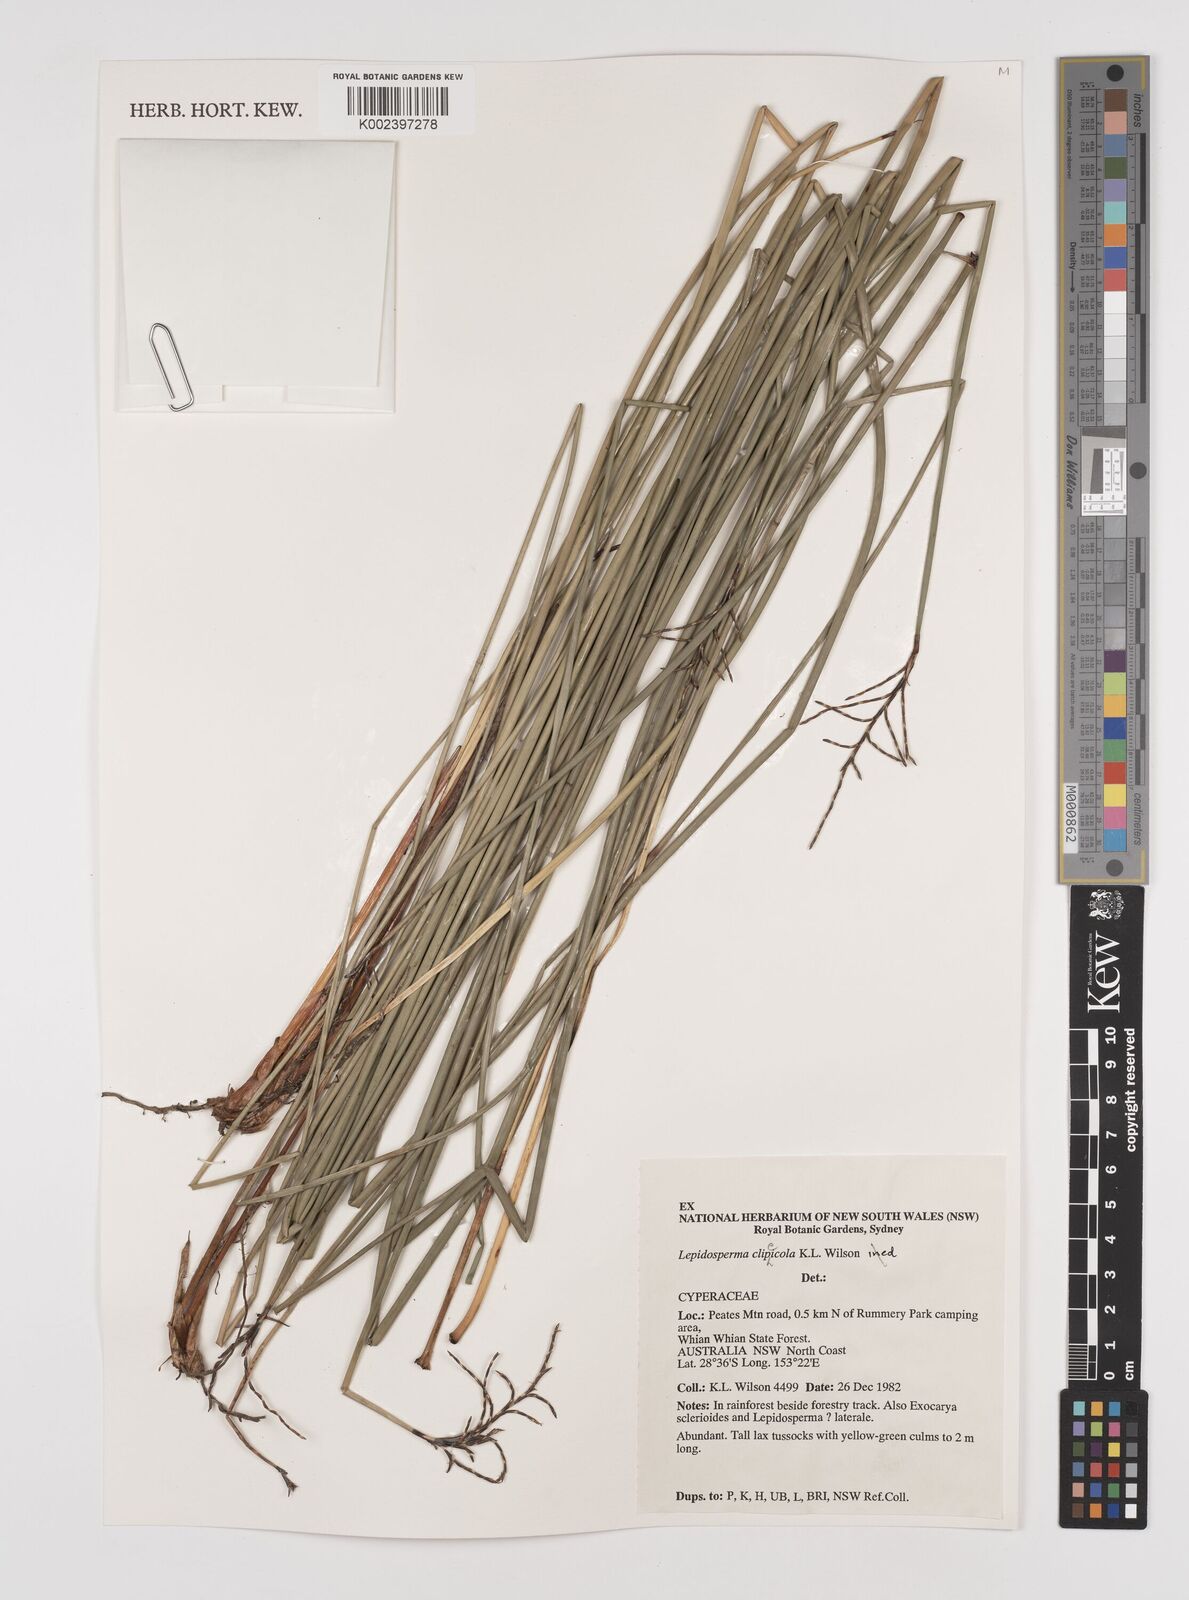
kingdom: Plantae
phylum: Tracheophyta
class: Liliopsida
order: Poales
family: Cyperaceae
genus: Lepidosperma
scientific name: Lepidosperma clipeicola
